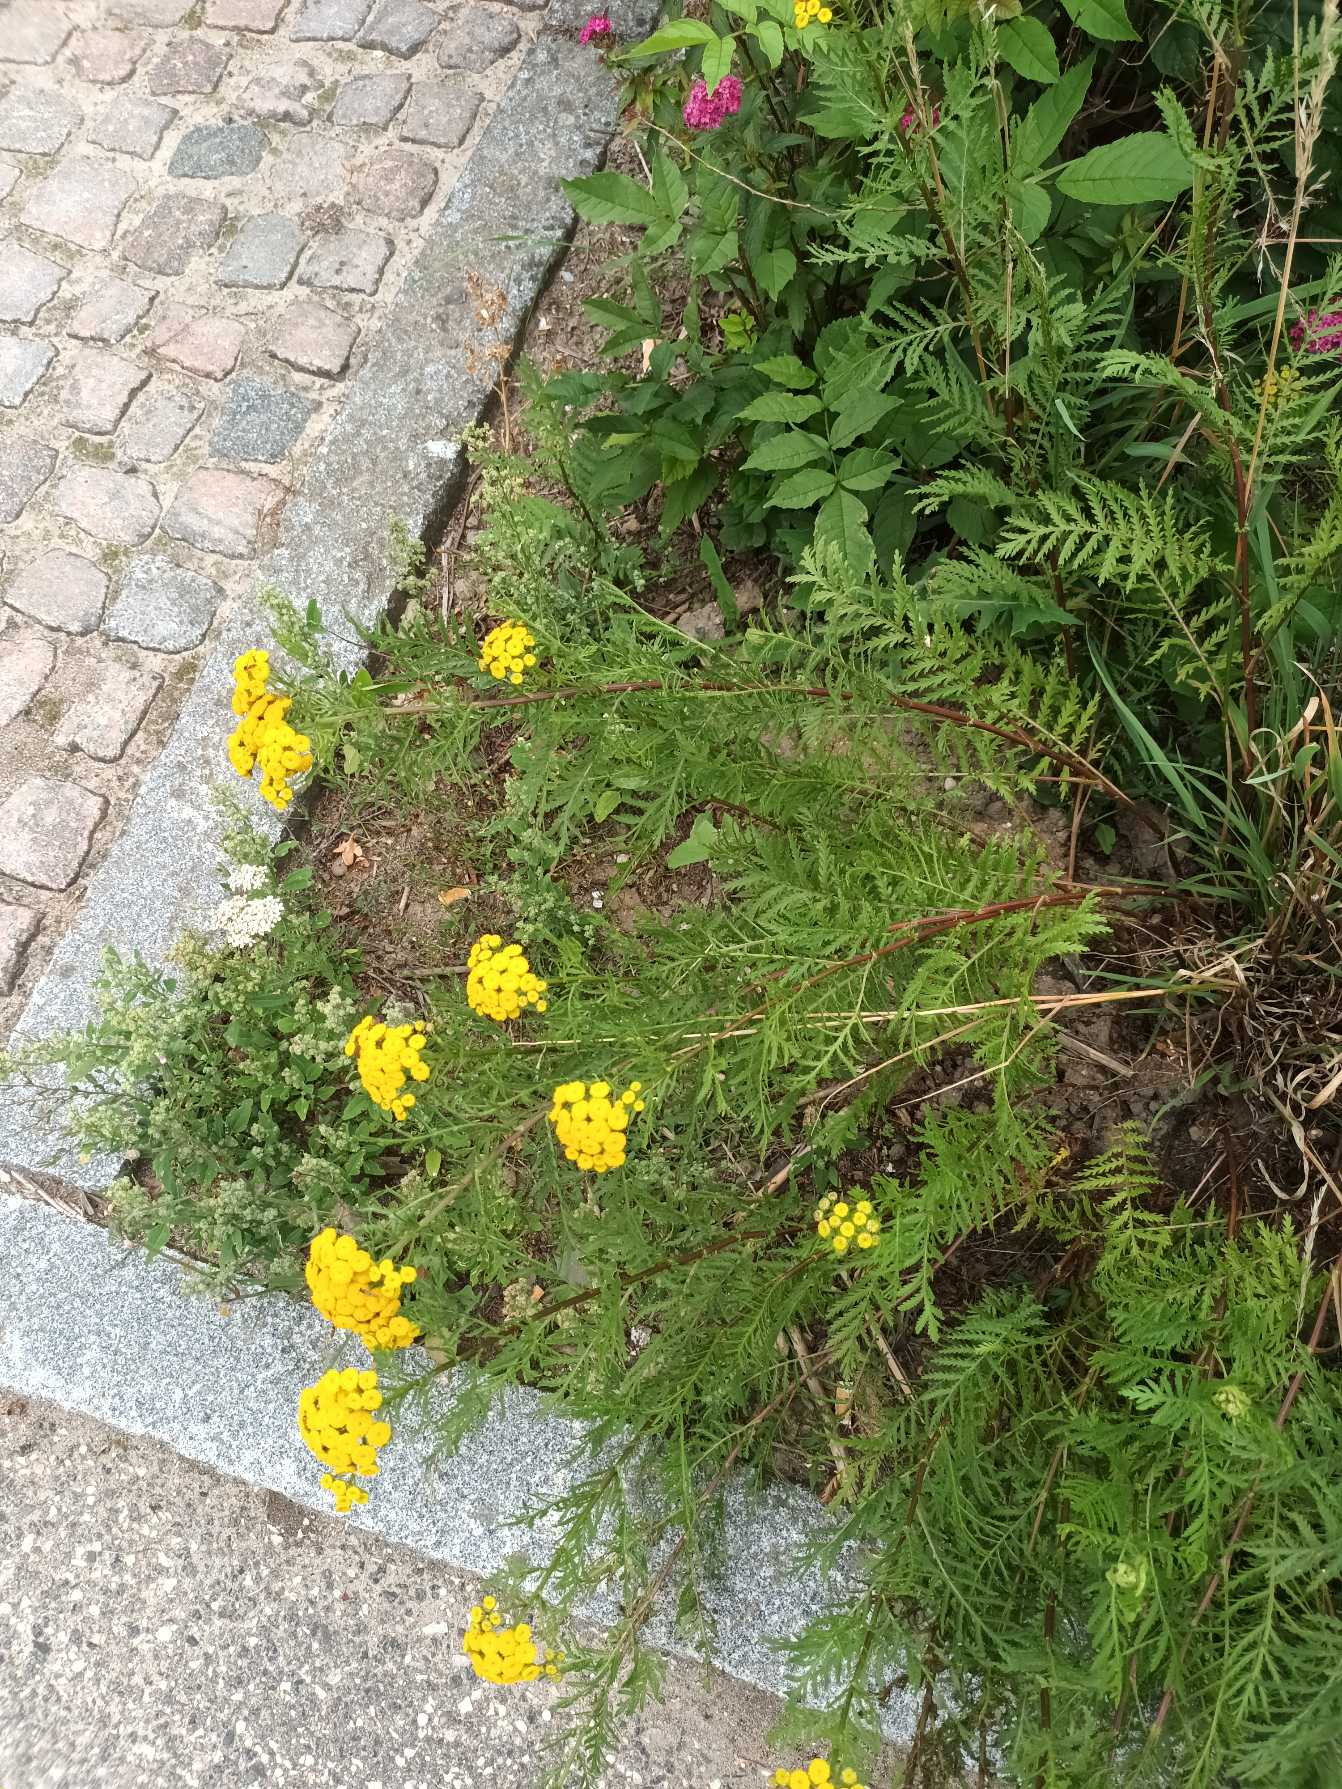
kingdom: Plantae
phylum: Tracheophyta
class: Magnoliopsida
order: Asterales
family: Asteraceae
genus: Tanacetum
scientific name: Tanacetum vulgare
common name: Rejnfan
